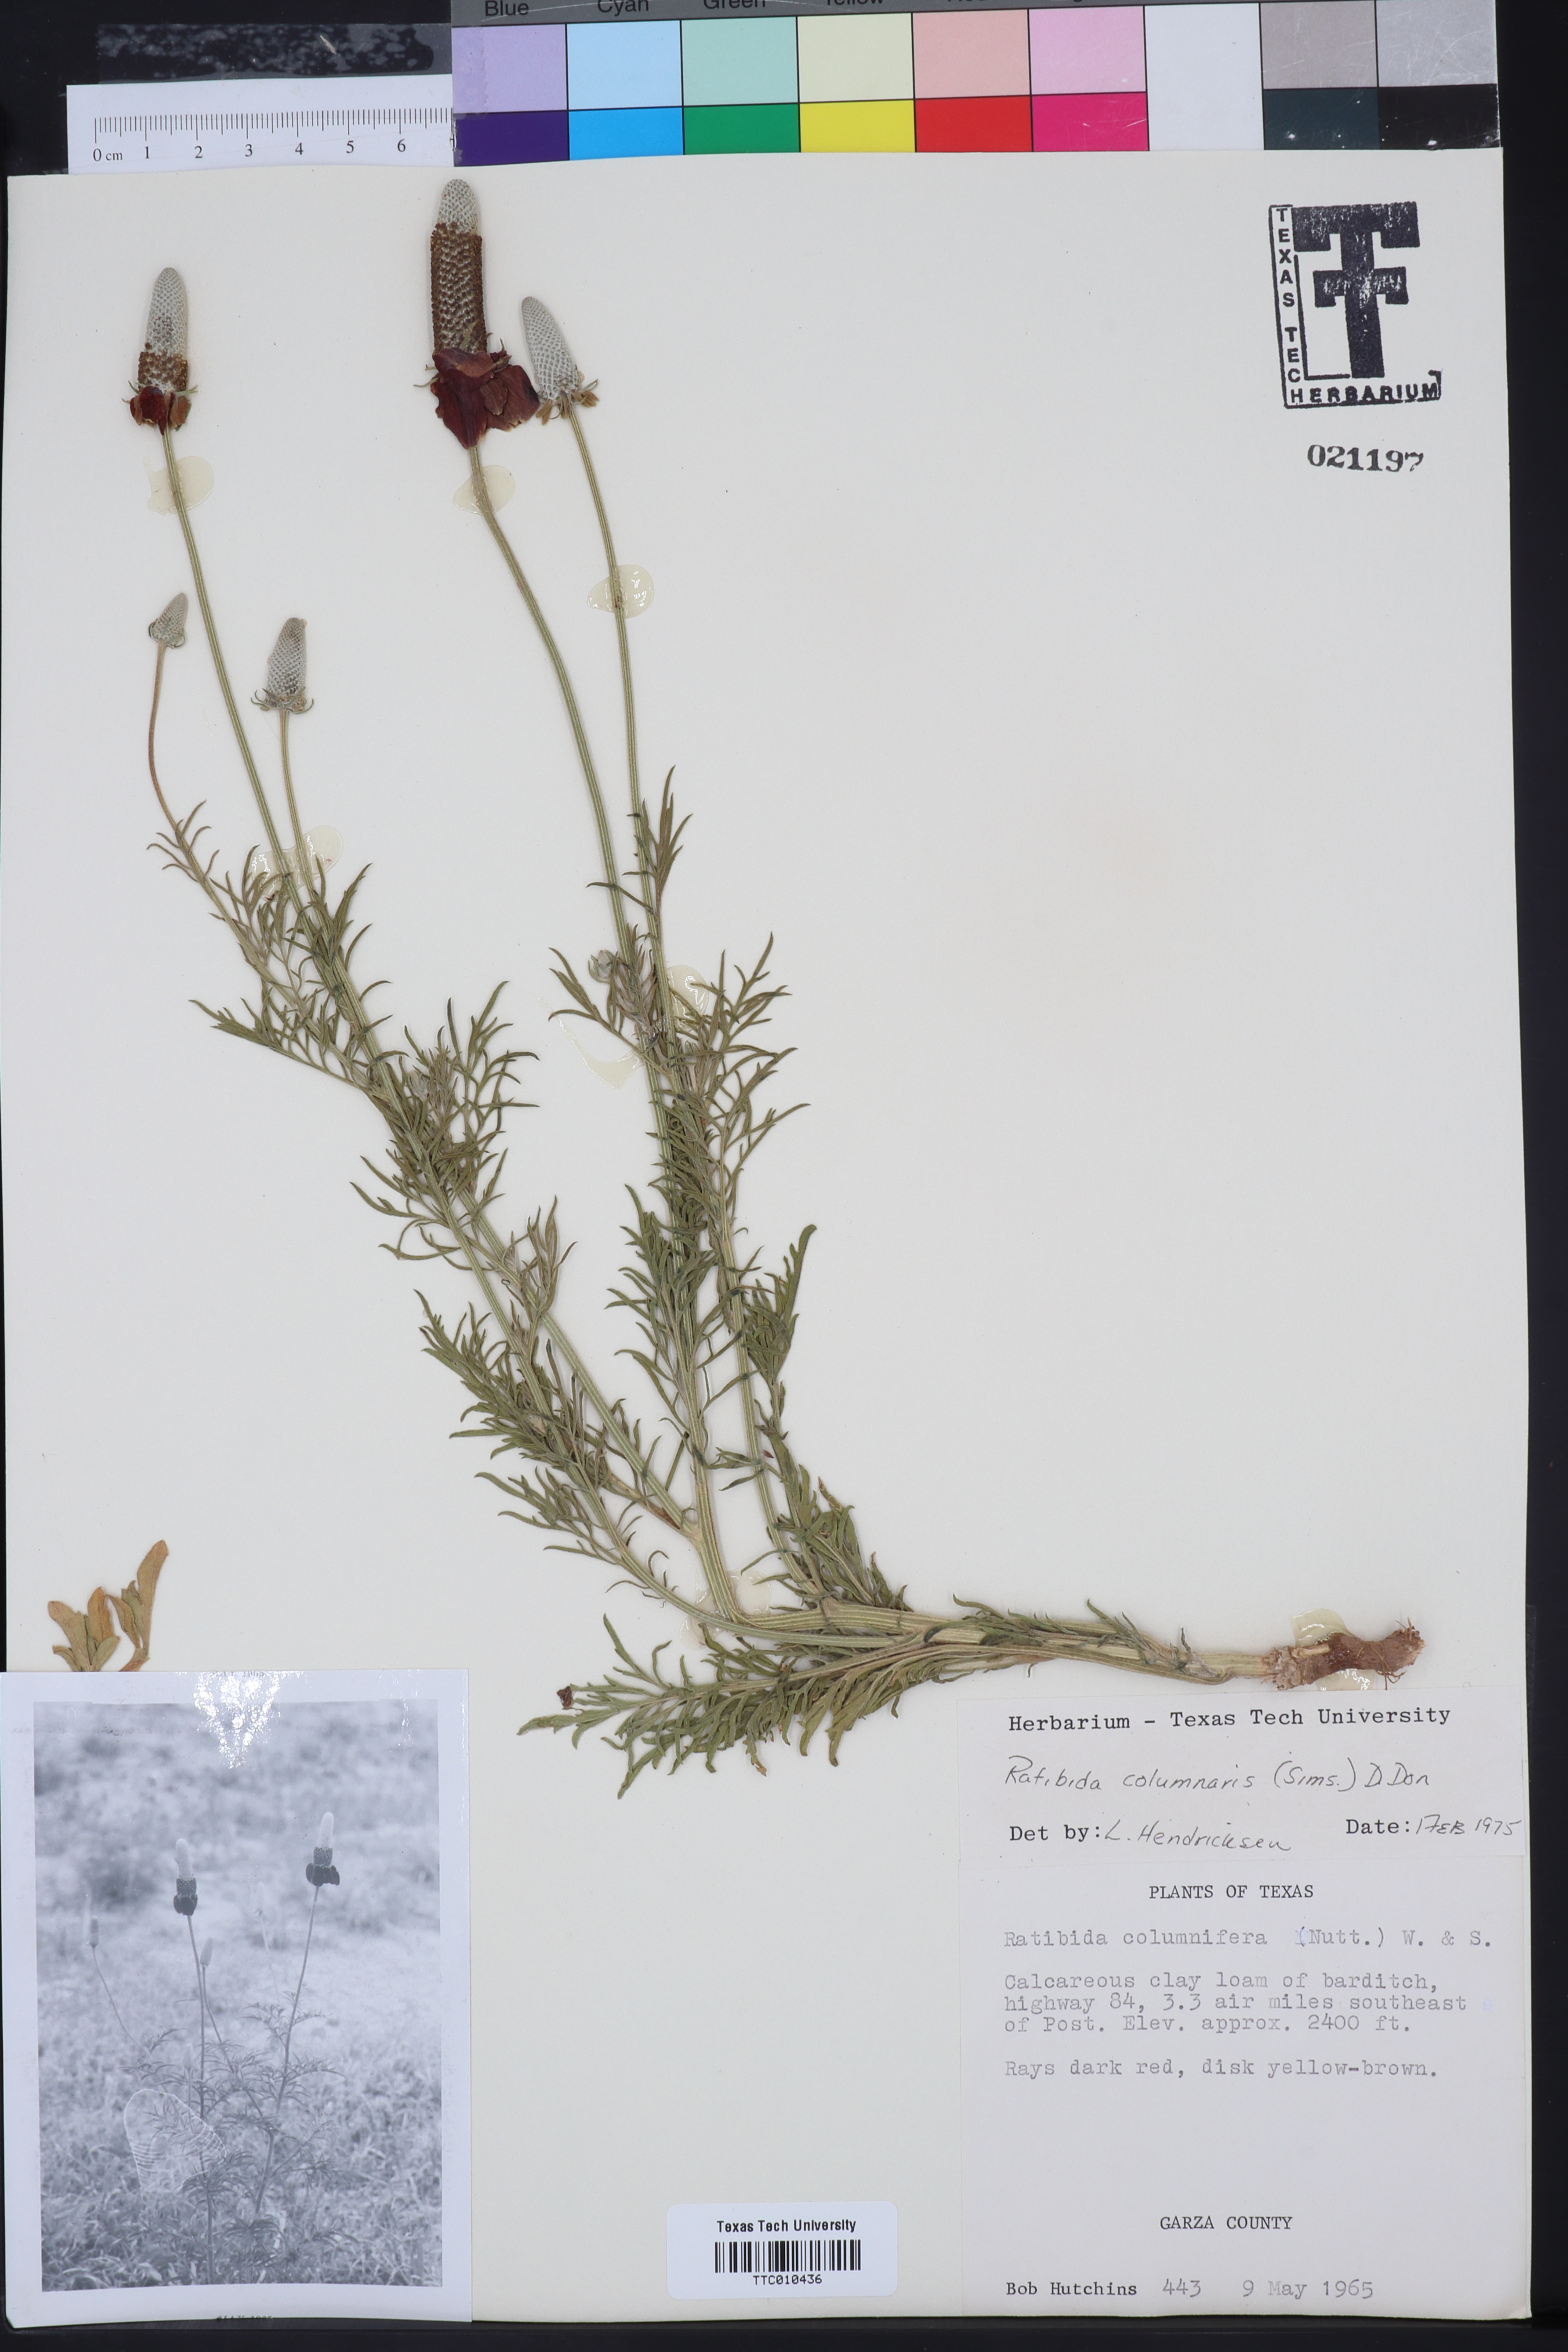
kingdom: Plantae
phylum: Tracheophyta
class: Magnoliopsida
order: Asterales
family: Asteraceae
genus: Ratibida
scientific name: Ratibida columnifera
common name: Prairie coneflower
